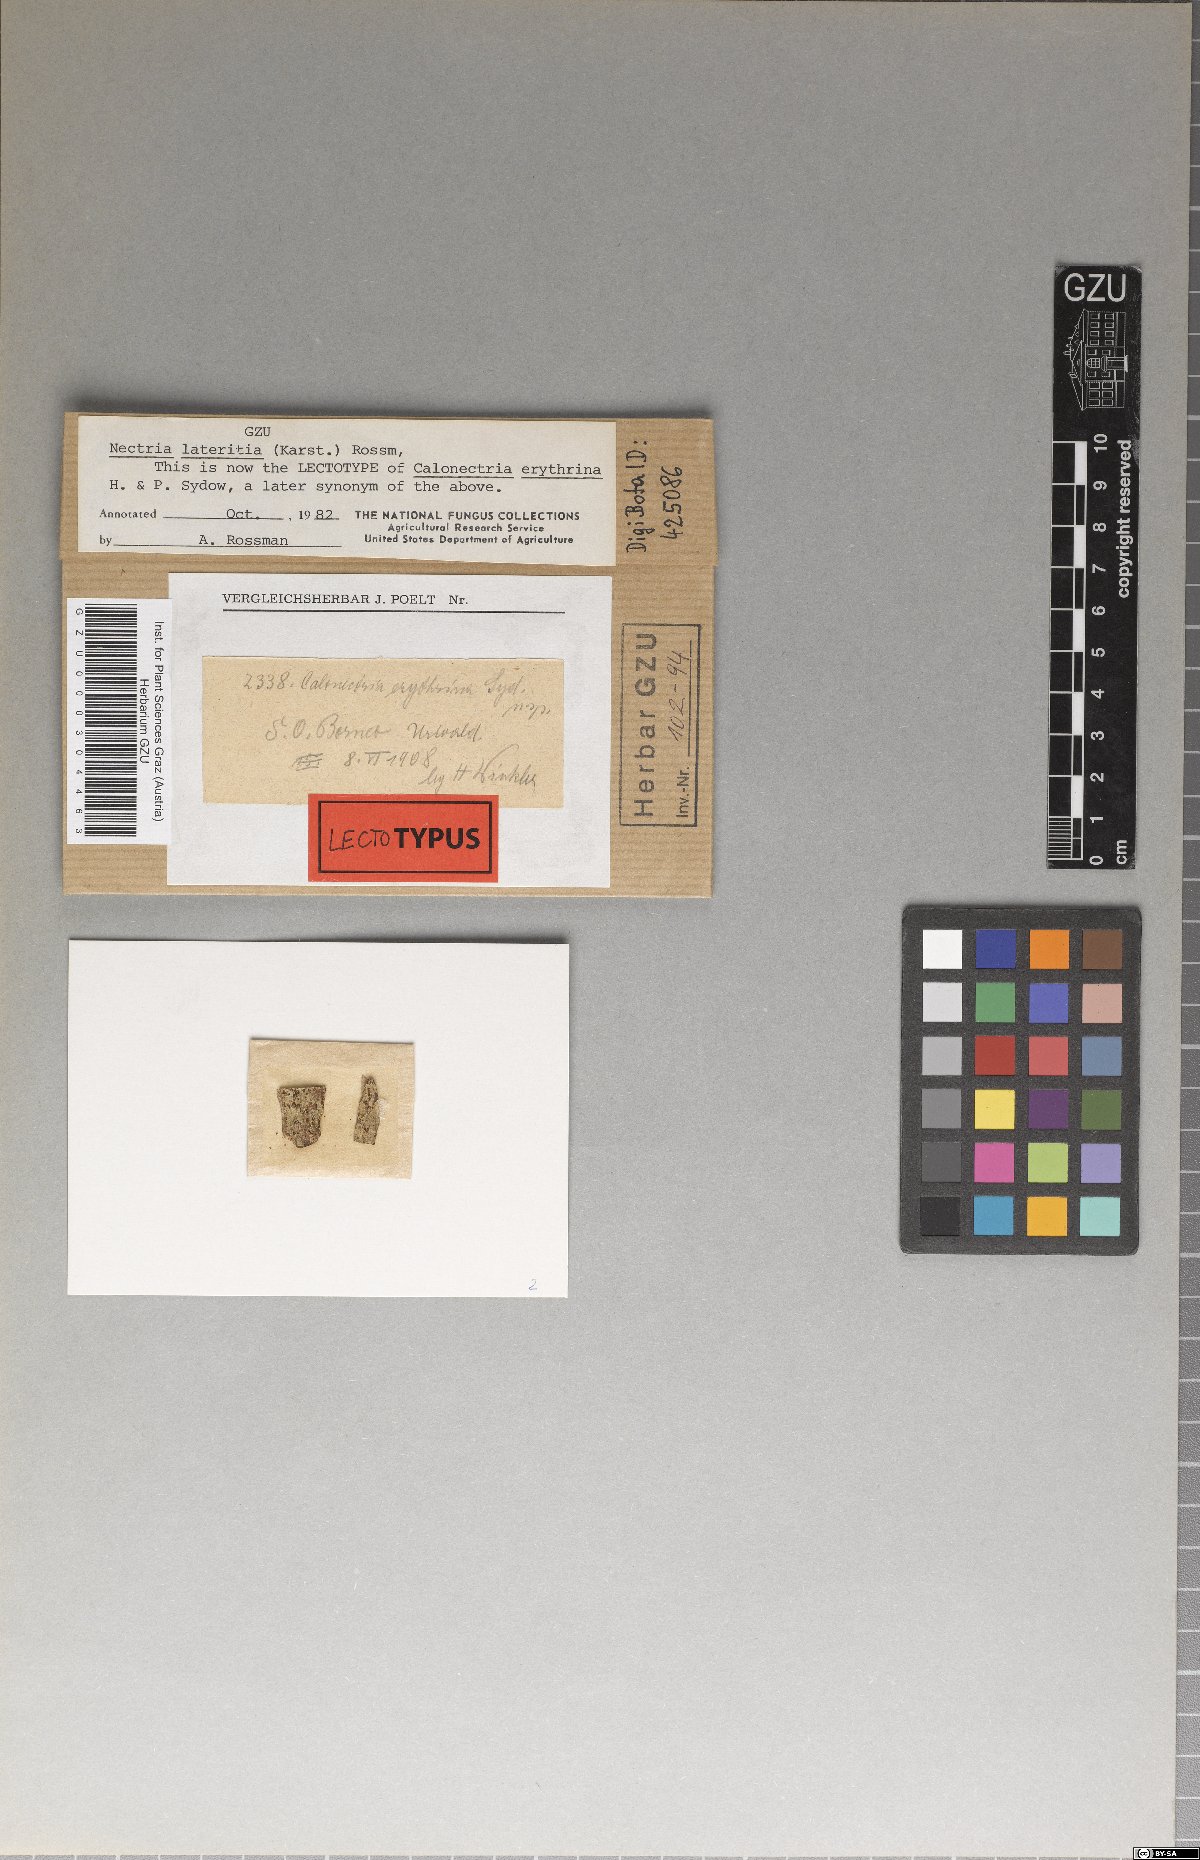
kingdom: Fungi
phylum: Ascomycota
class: Sordariomycetes
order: Hypocreales
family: Nectriaceae
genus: Nectria
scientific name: Nectria erythrina
